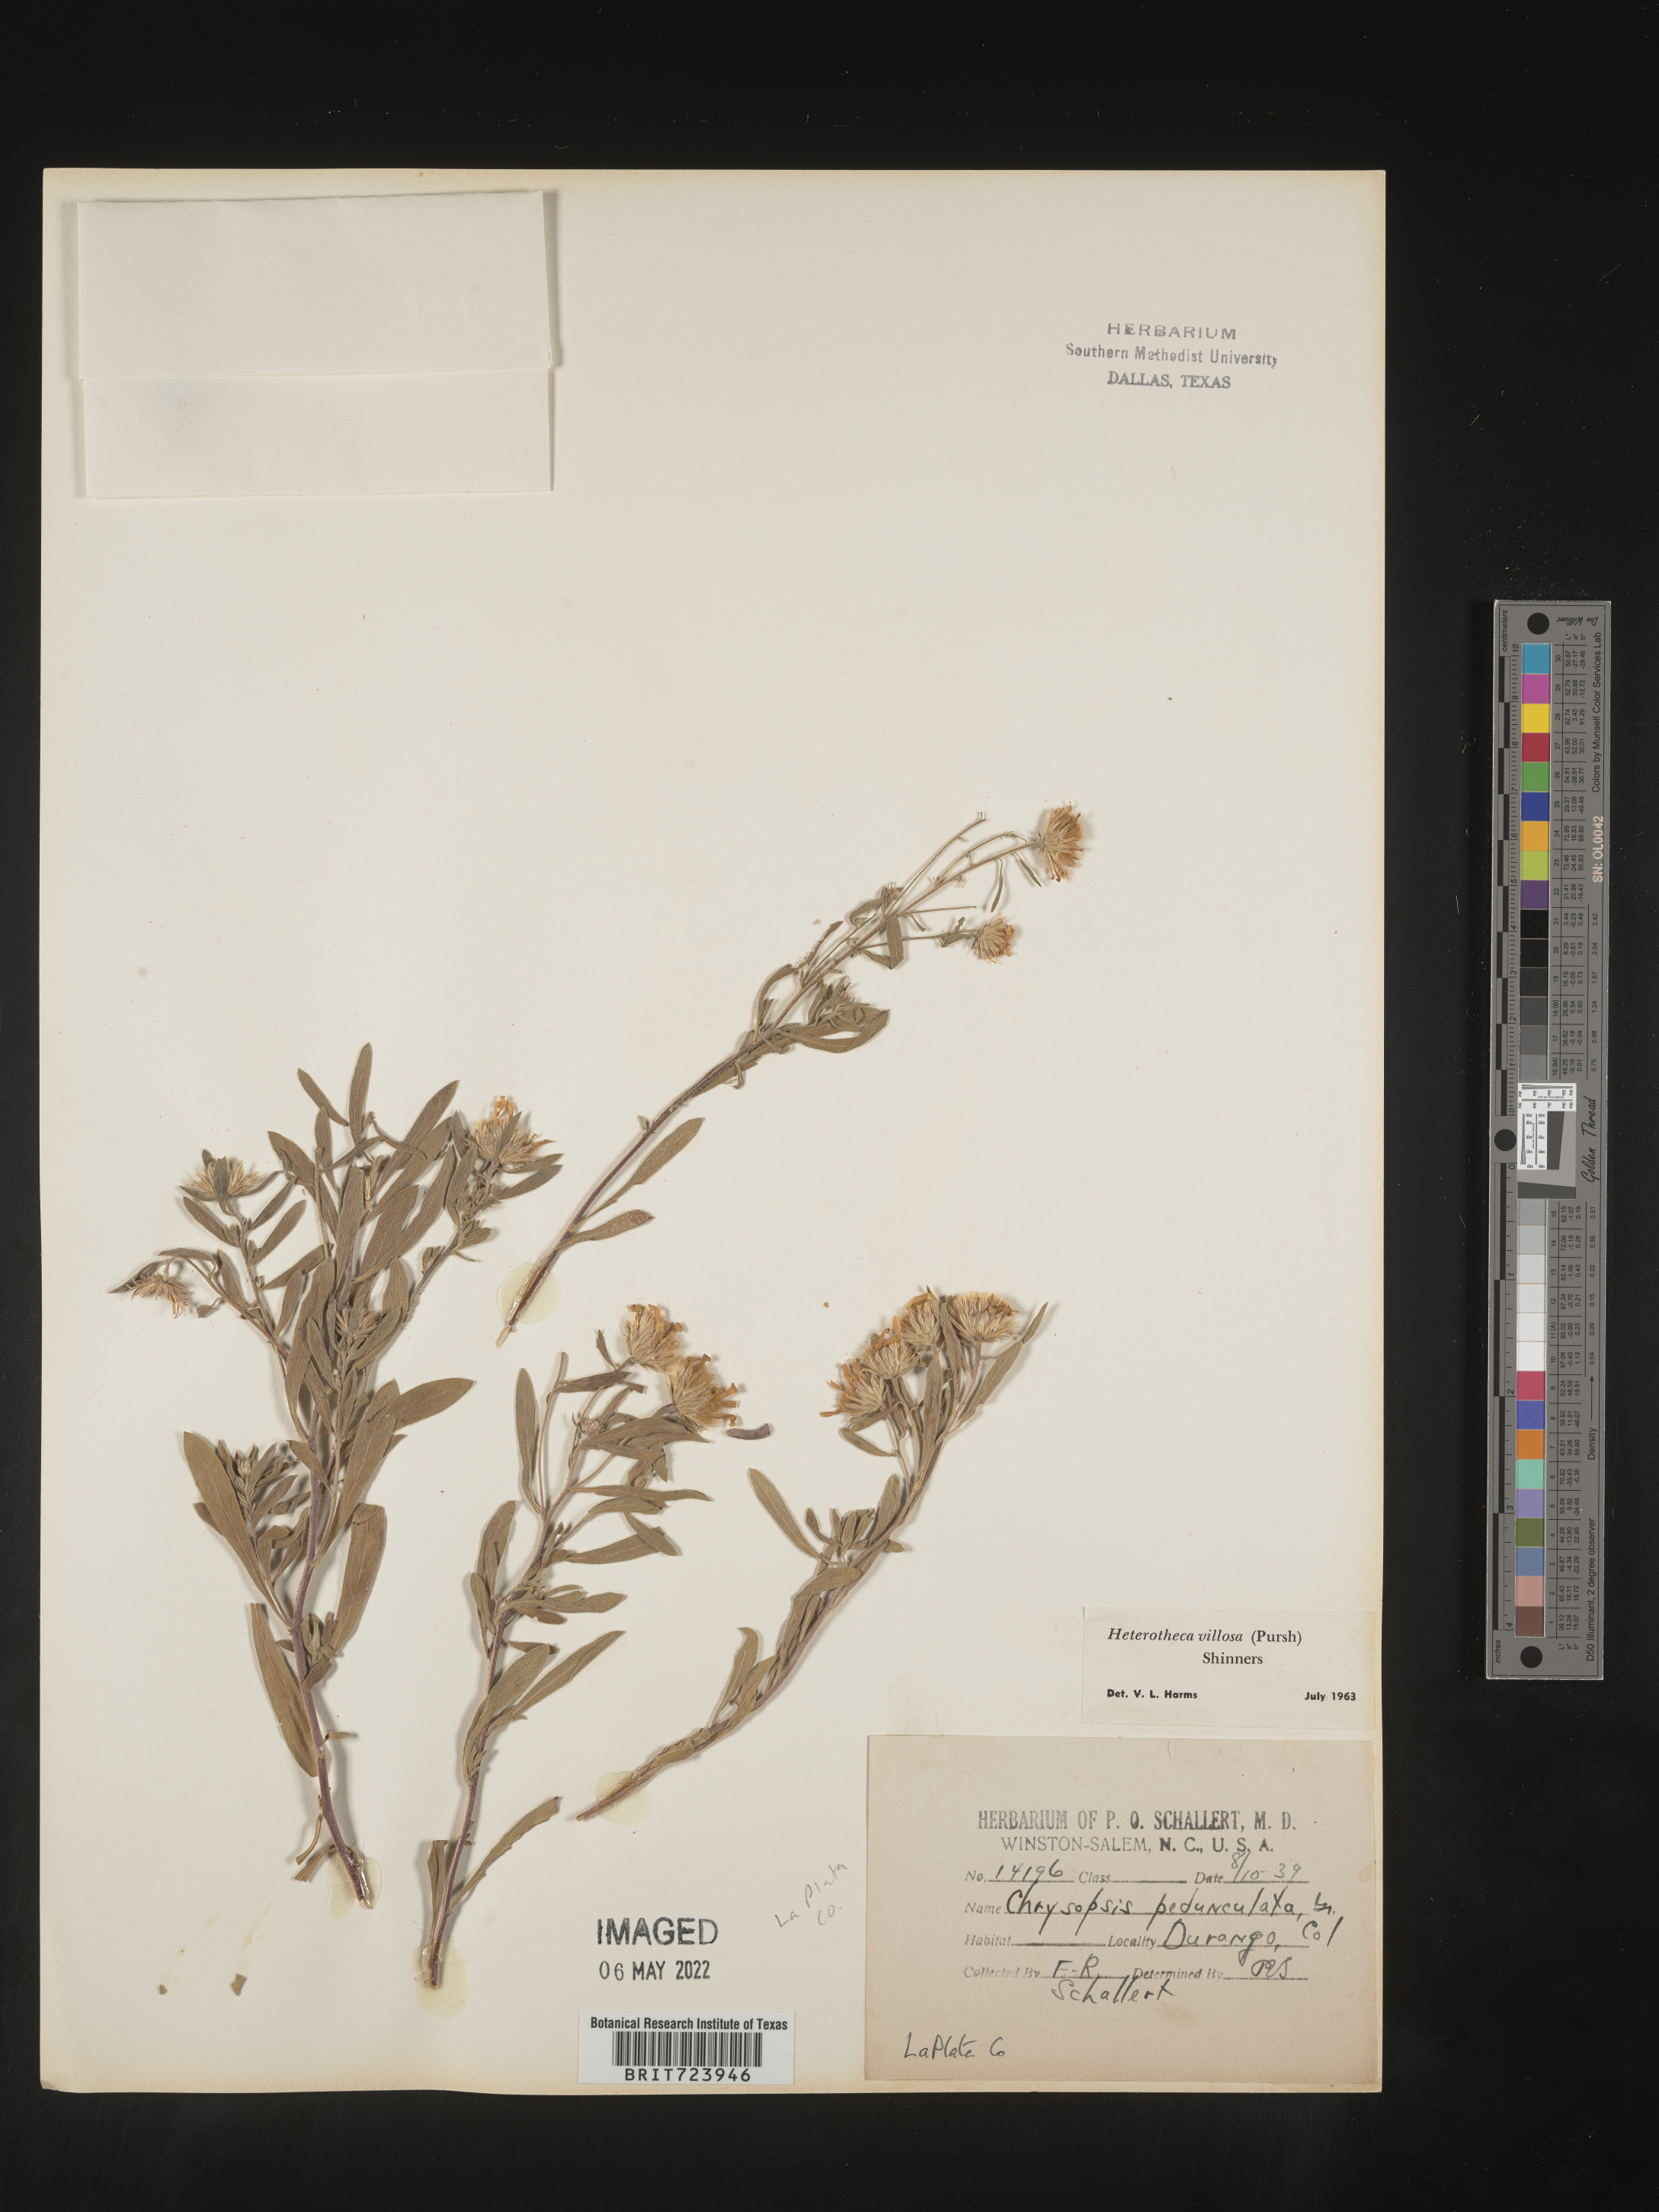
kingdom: Plantae
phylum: Tracheophyta
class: Magnoliopsida
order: Asterales
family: Asteraceae
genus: Heterotheca
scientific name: Heterotheca pedunculata
